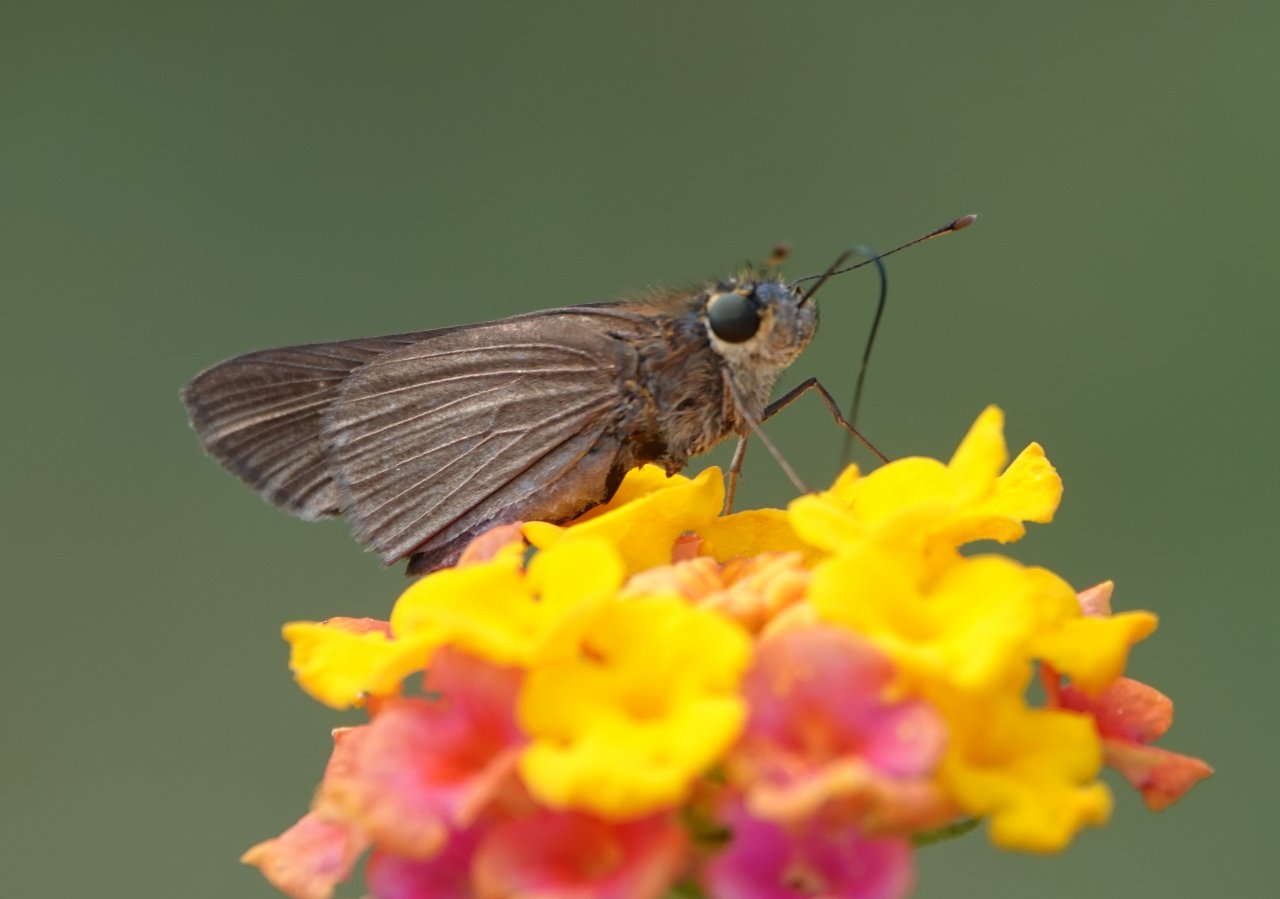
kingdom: Animalia
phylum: Arthropoda
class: Insecta
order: Lepidoptera
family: Hesperiidae
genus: Panoquina
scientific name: Panoquina ocola
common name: Ocola Skipper
